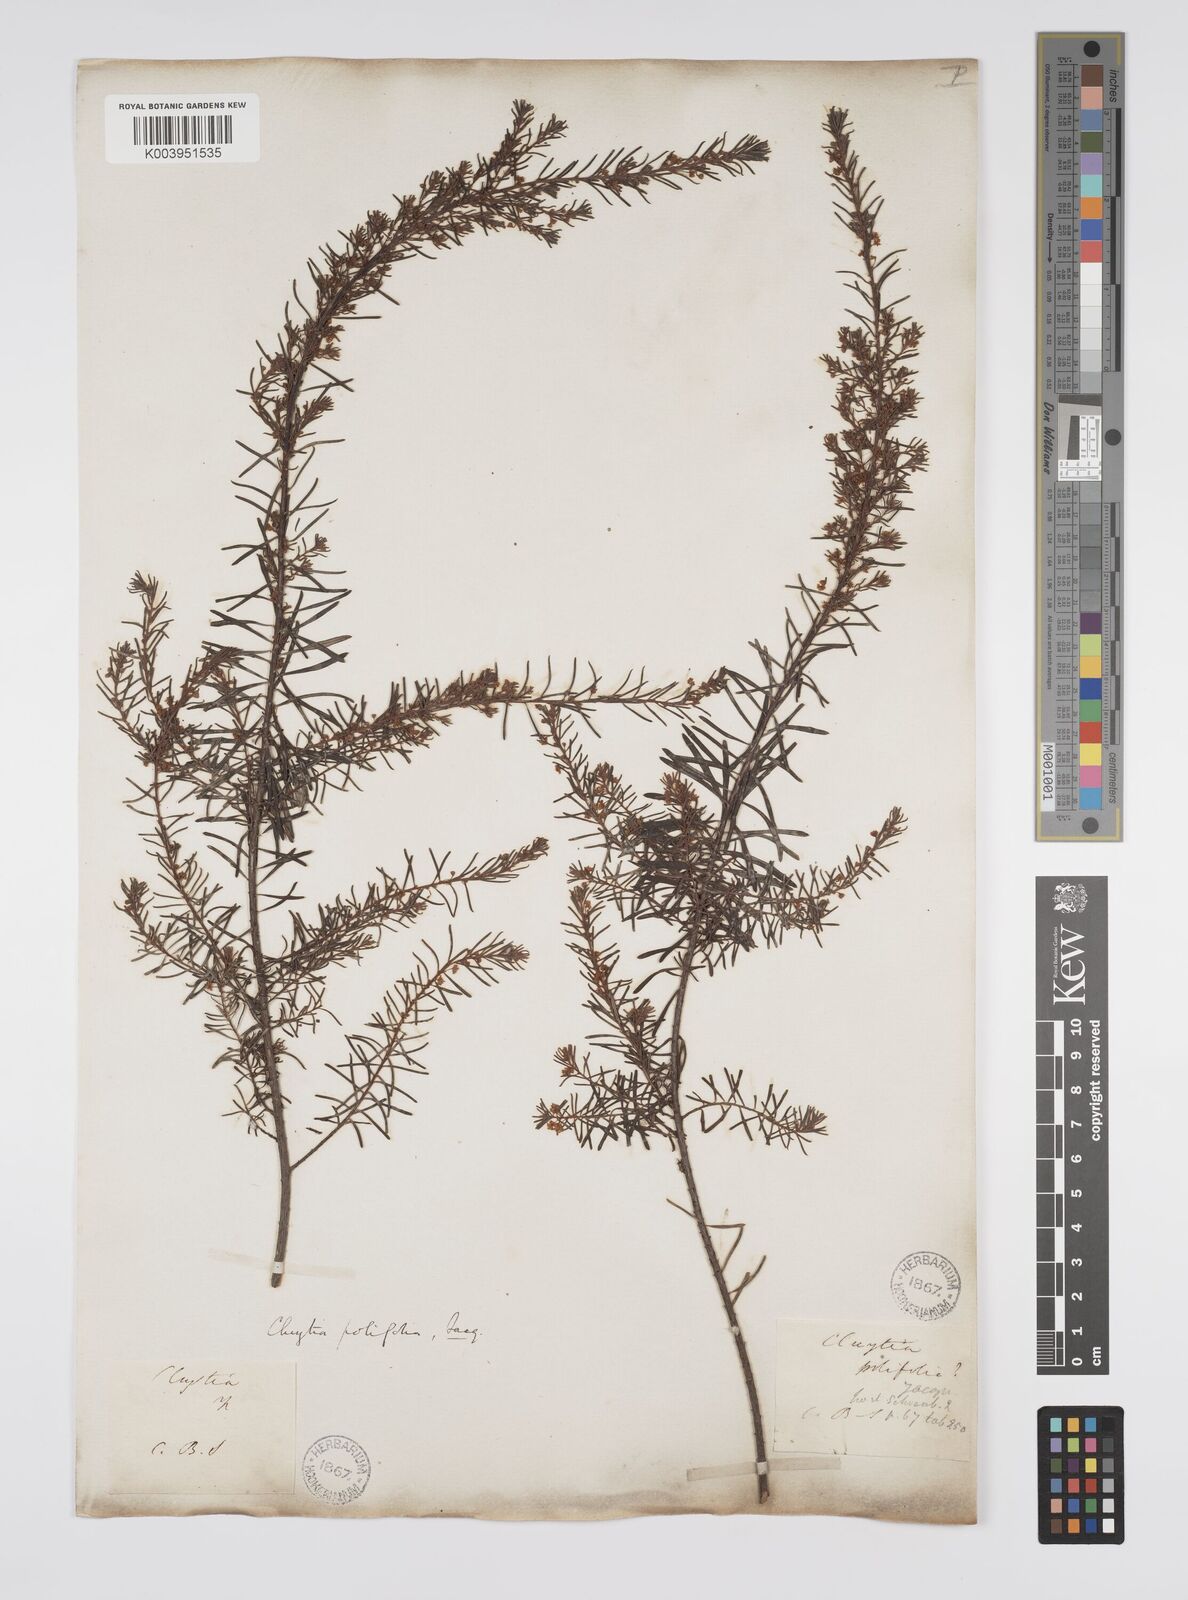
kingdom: Plantae
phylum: Tracheophyta
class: Magnoliopsida
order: Malpighiales
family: Peraceae
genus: Clutia
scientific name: Clutia
